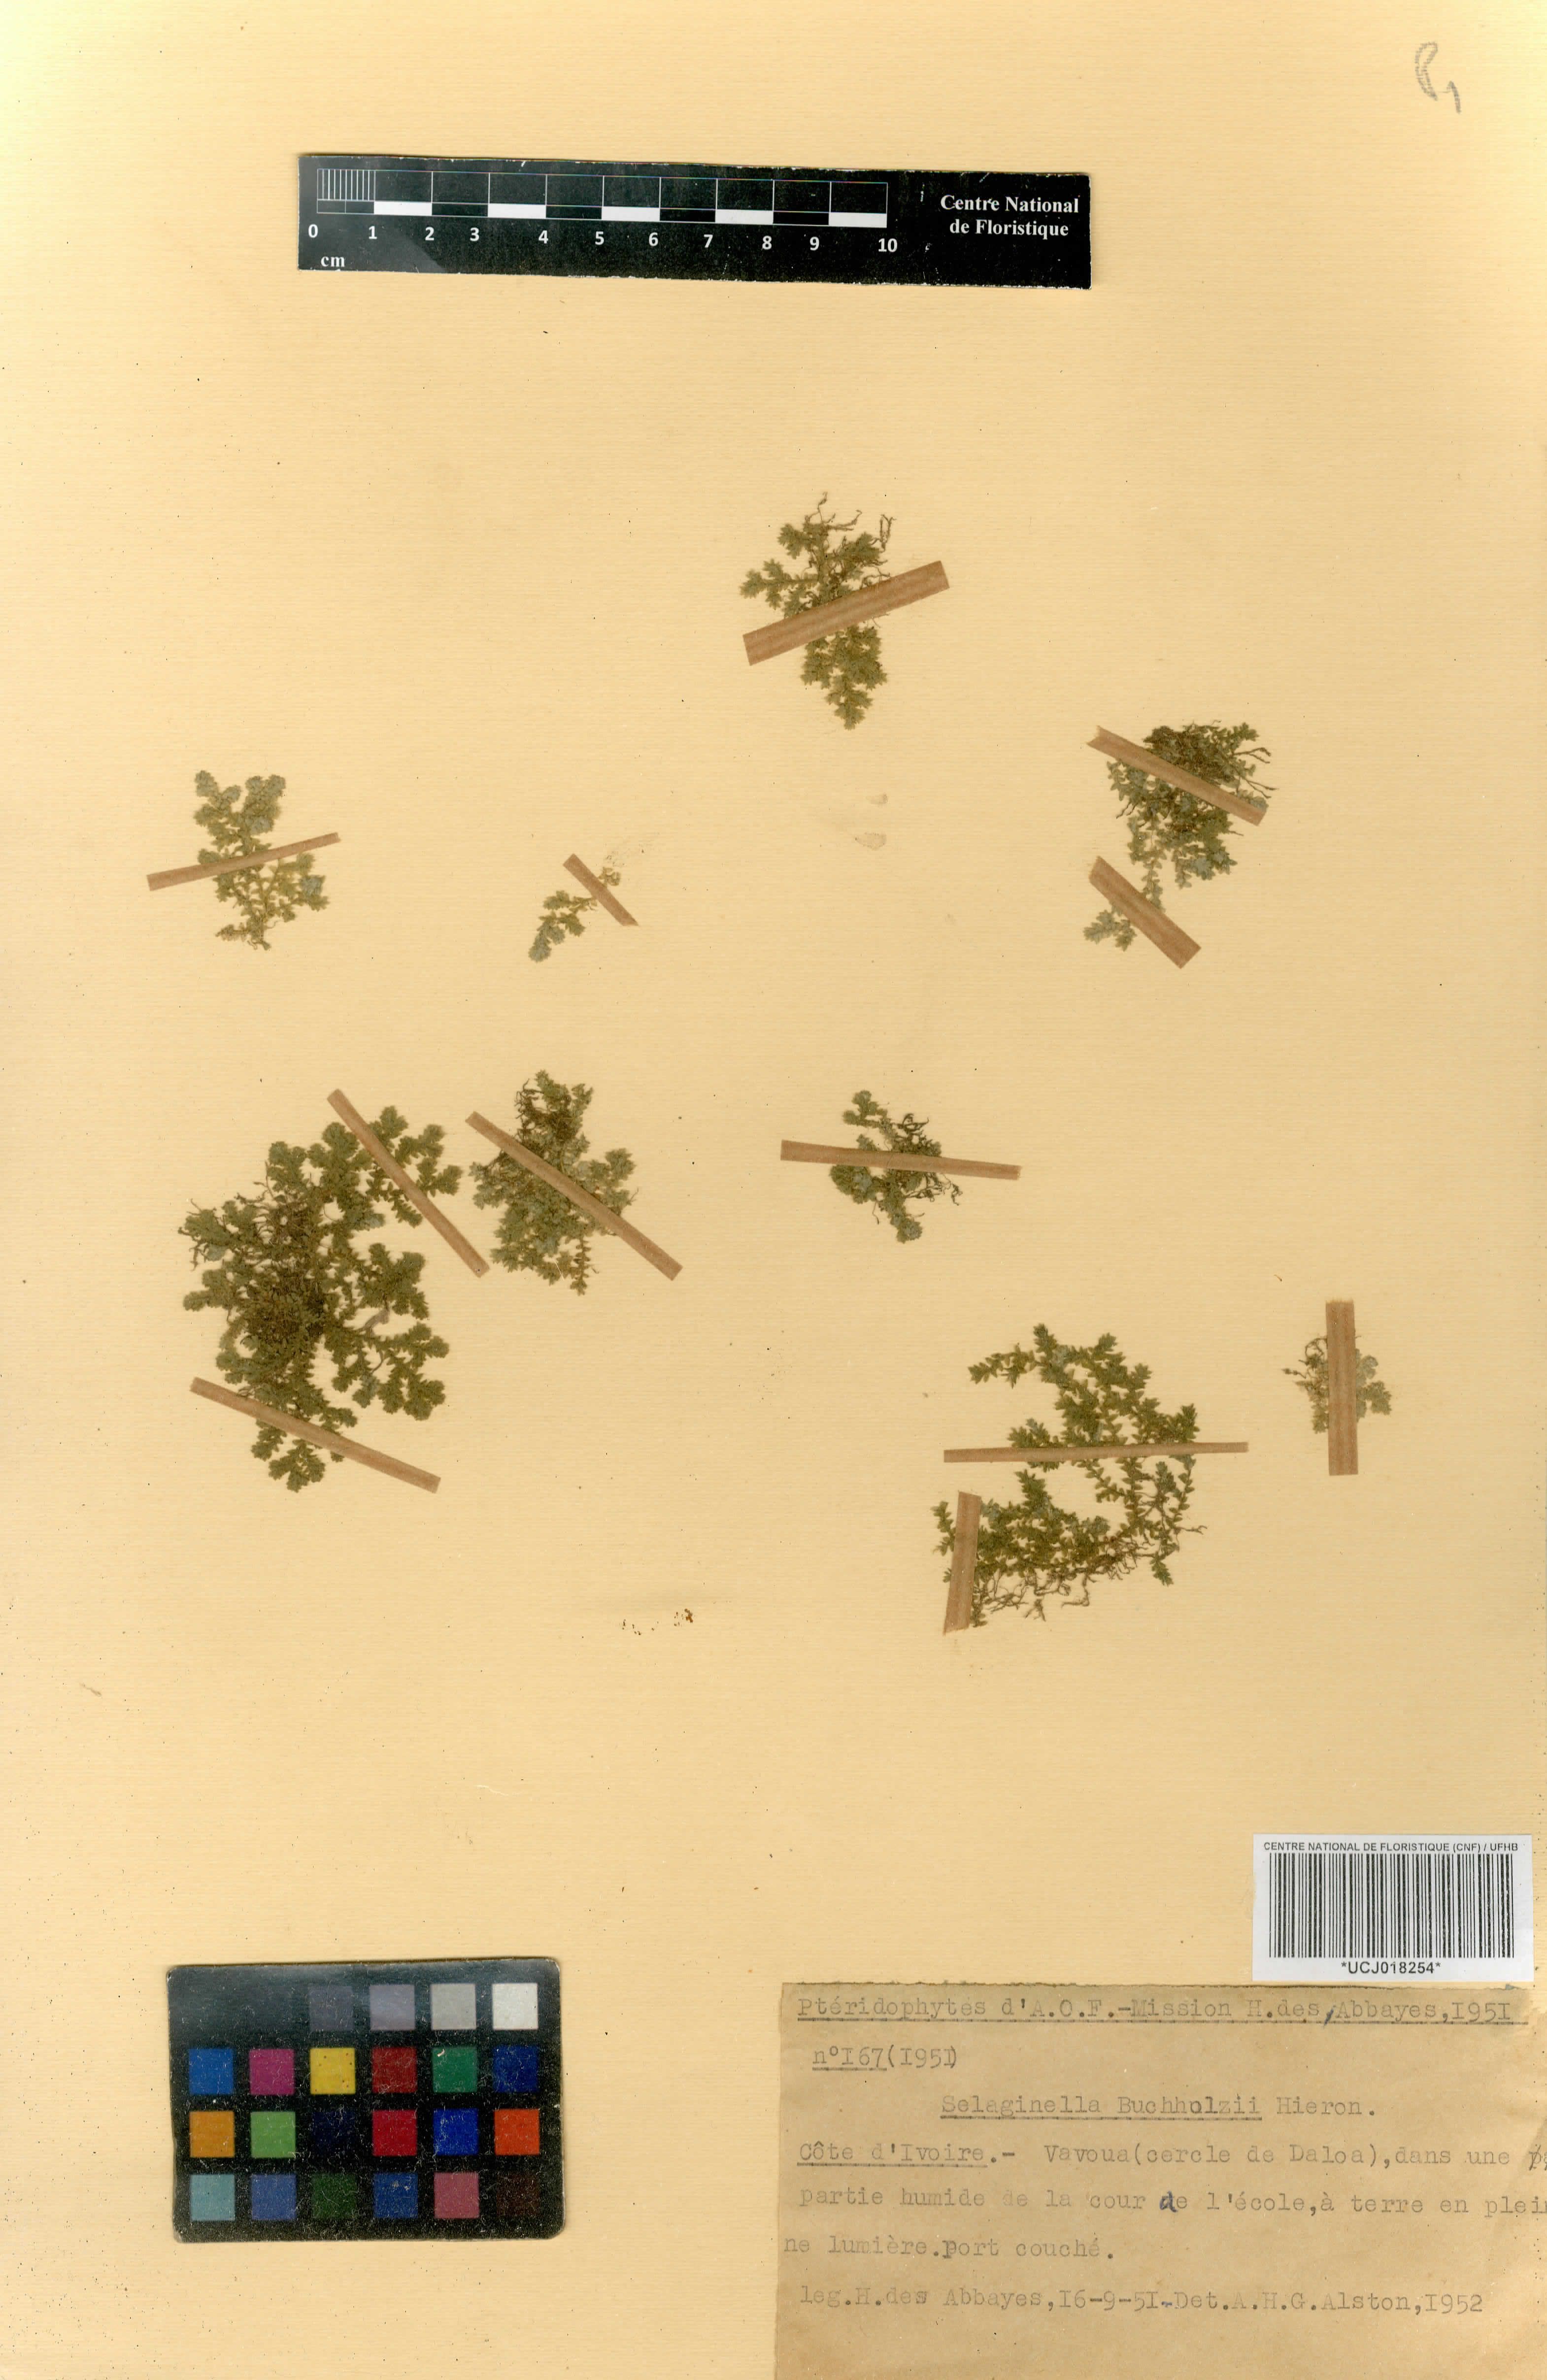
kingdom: Plantae
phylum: Tracheophyta
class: Lycopodiopsida
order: Selaginellales
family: Selaginellaceae
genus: Selaginella
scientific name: Selaginella buchholzii
